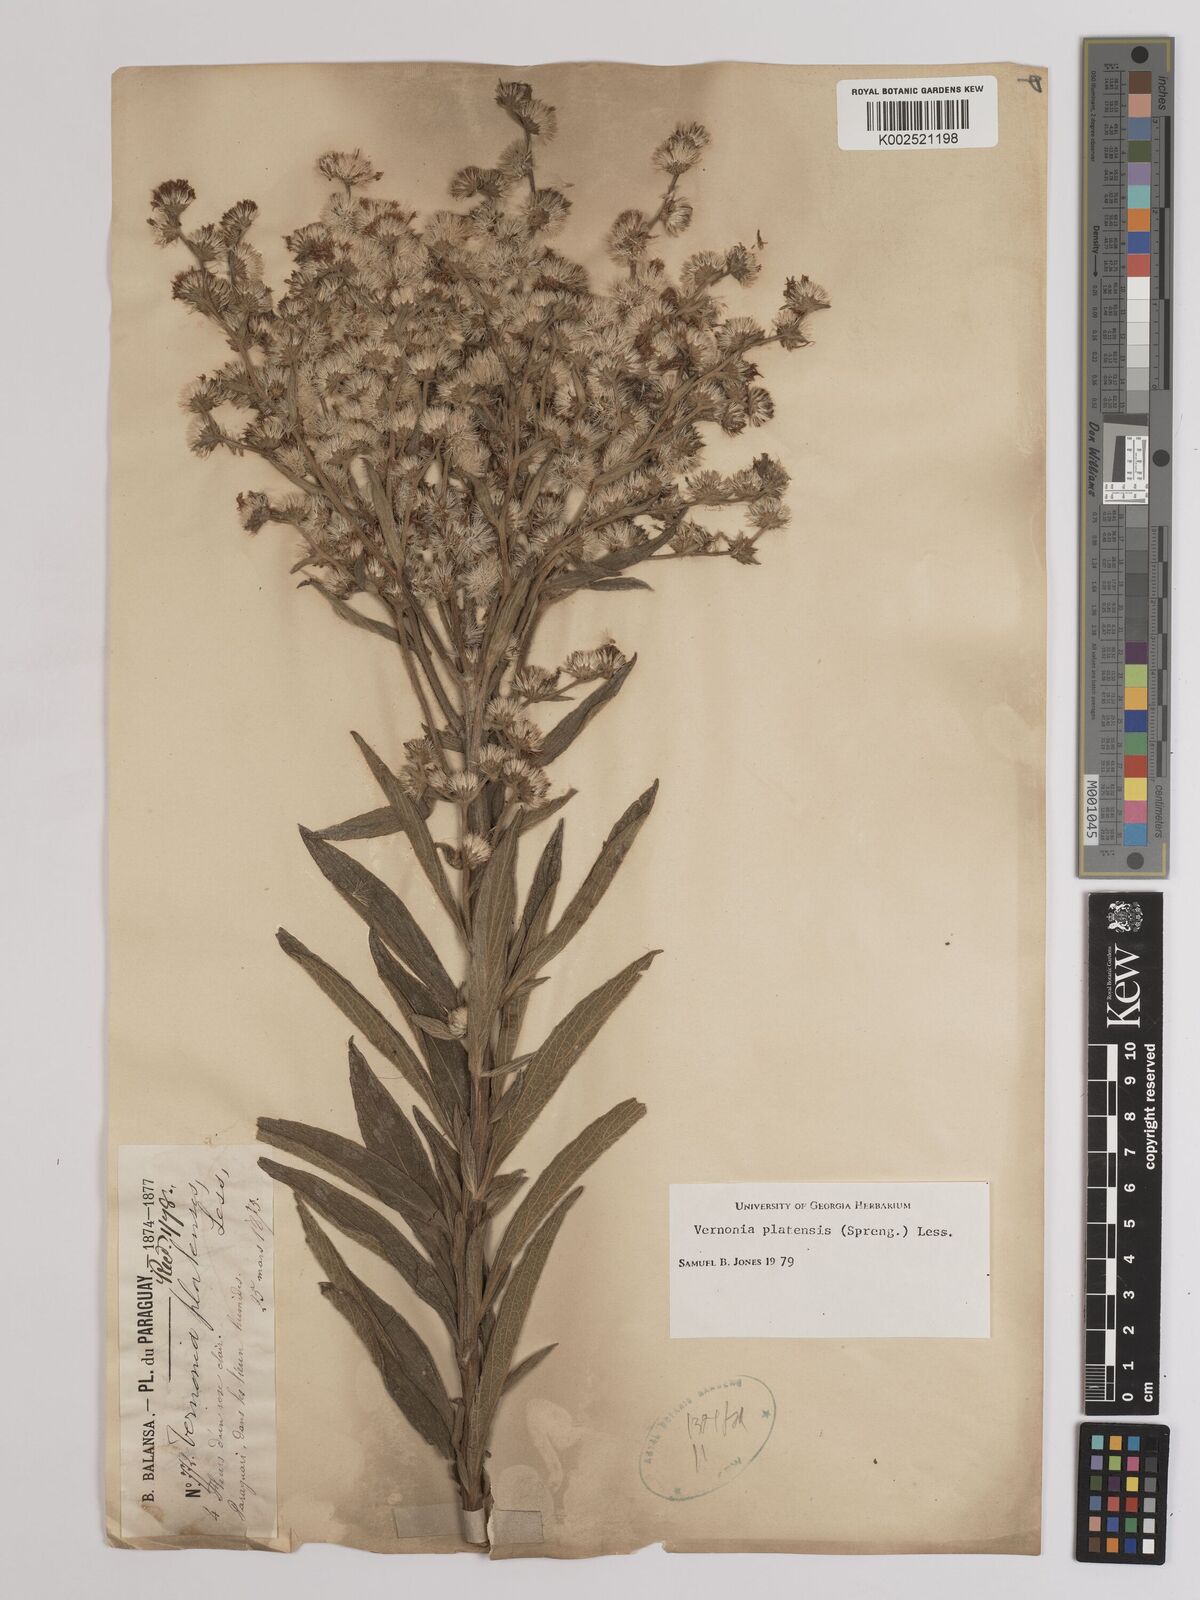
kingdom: Plantae
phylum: Tracheophyta
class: Magnoliopsida
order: Asterales
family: Asteraceae
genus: Chrysolaena
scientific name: Chrysolaena platensis
